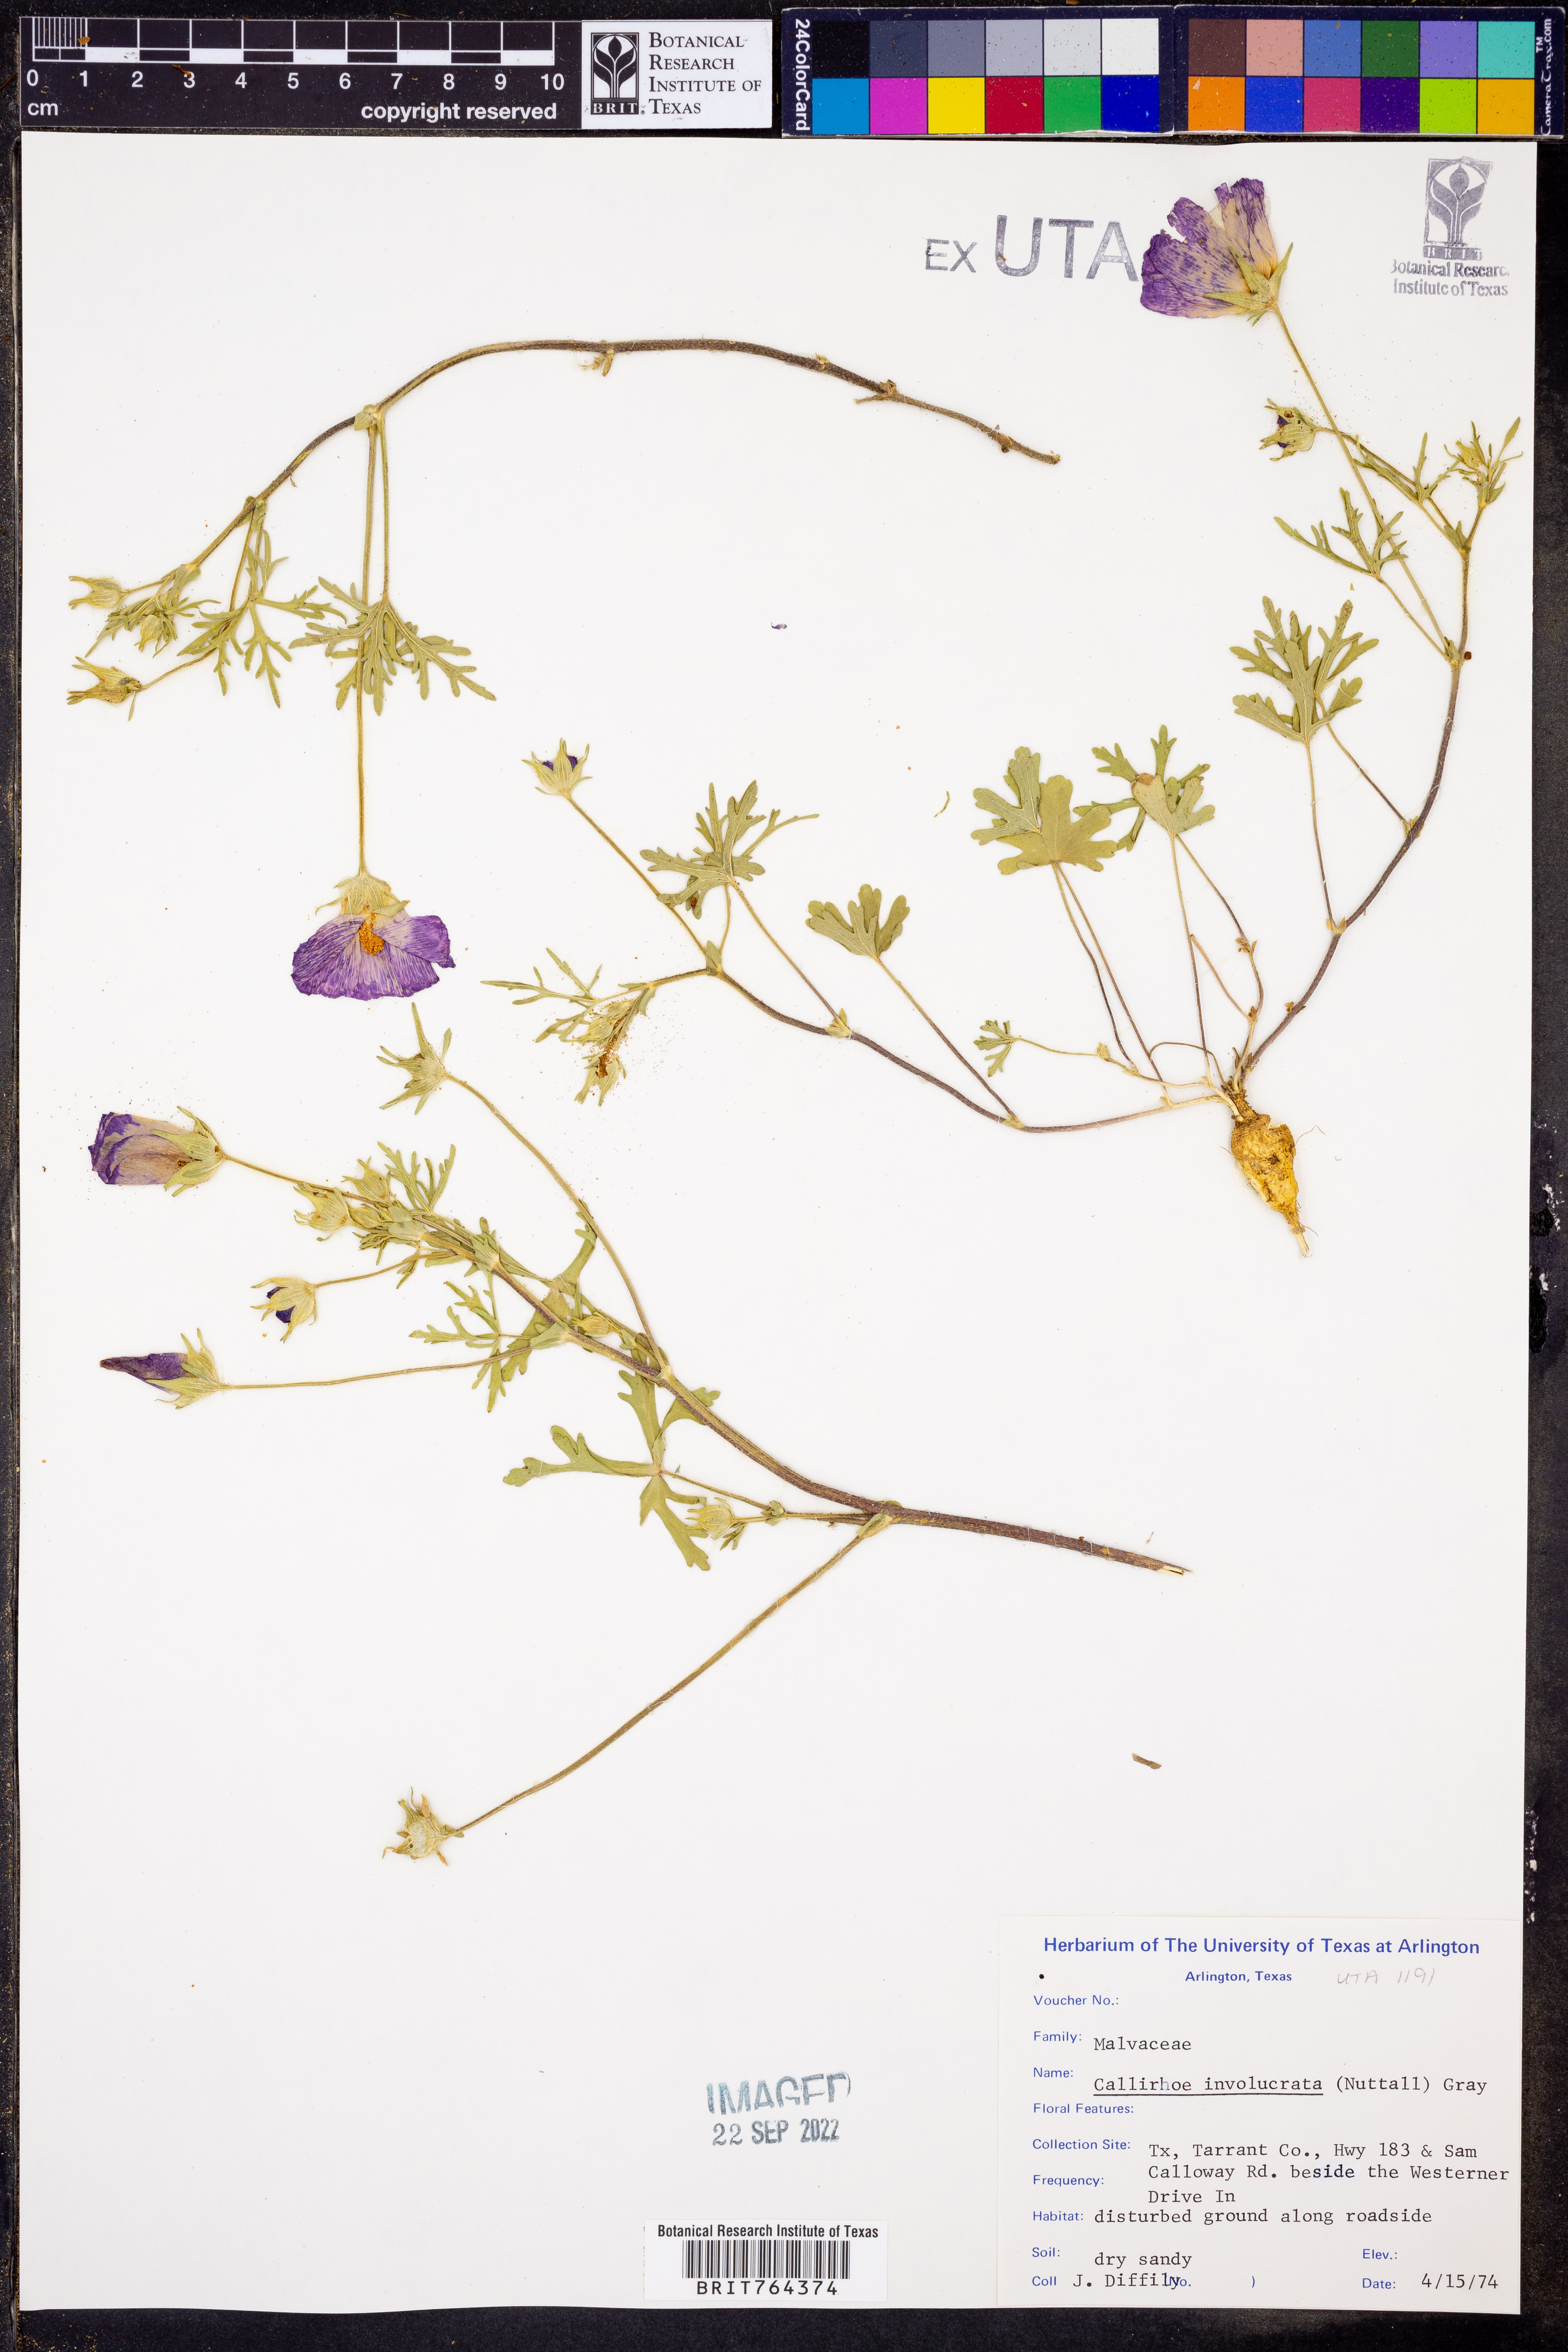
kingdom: Plantae
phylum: Tracheophyta
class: Magnoliopsida
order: Malvales
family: Malvaceae
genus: Callirhoe
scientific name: Callirhoe involucrata
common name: Purple poppy-mallow
